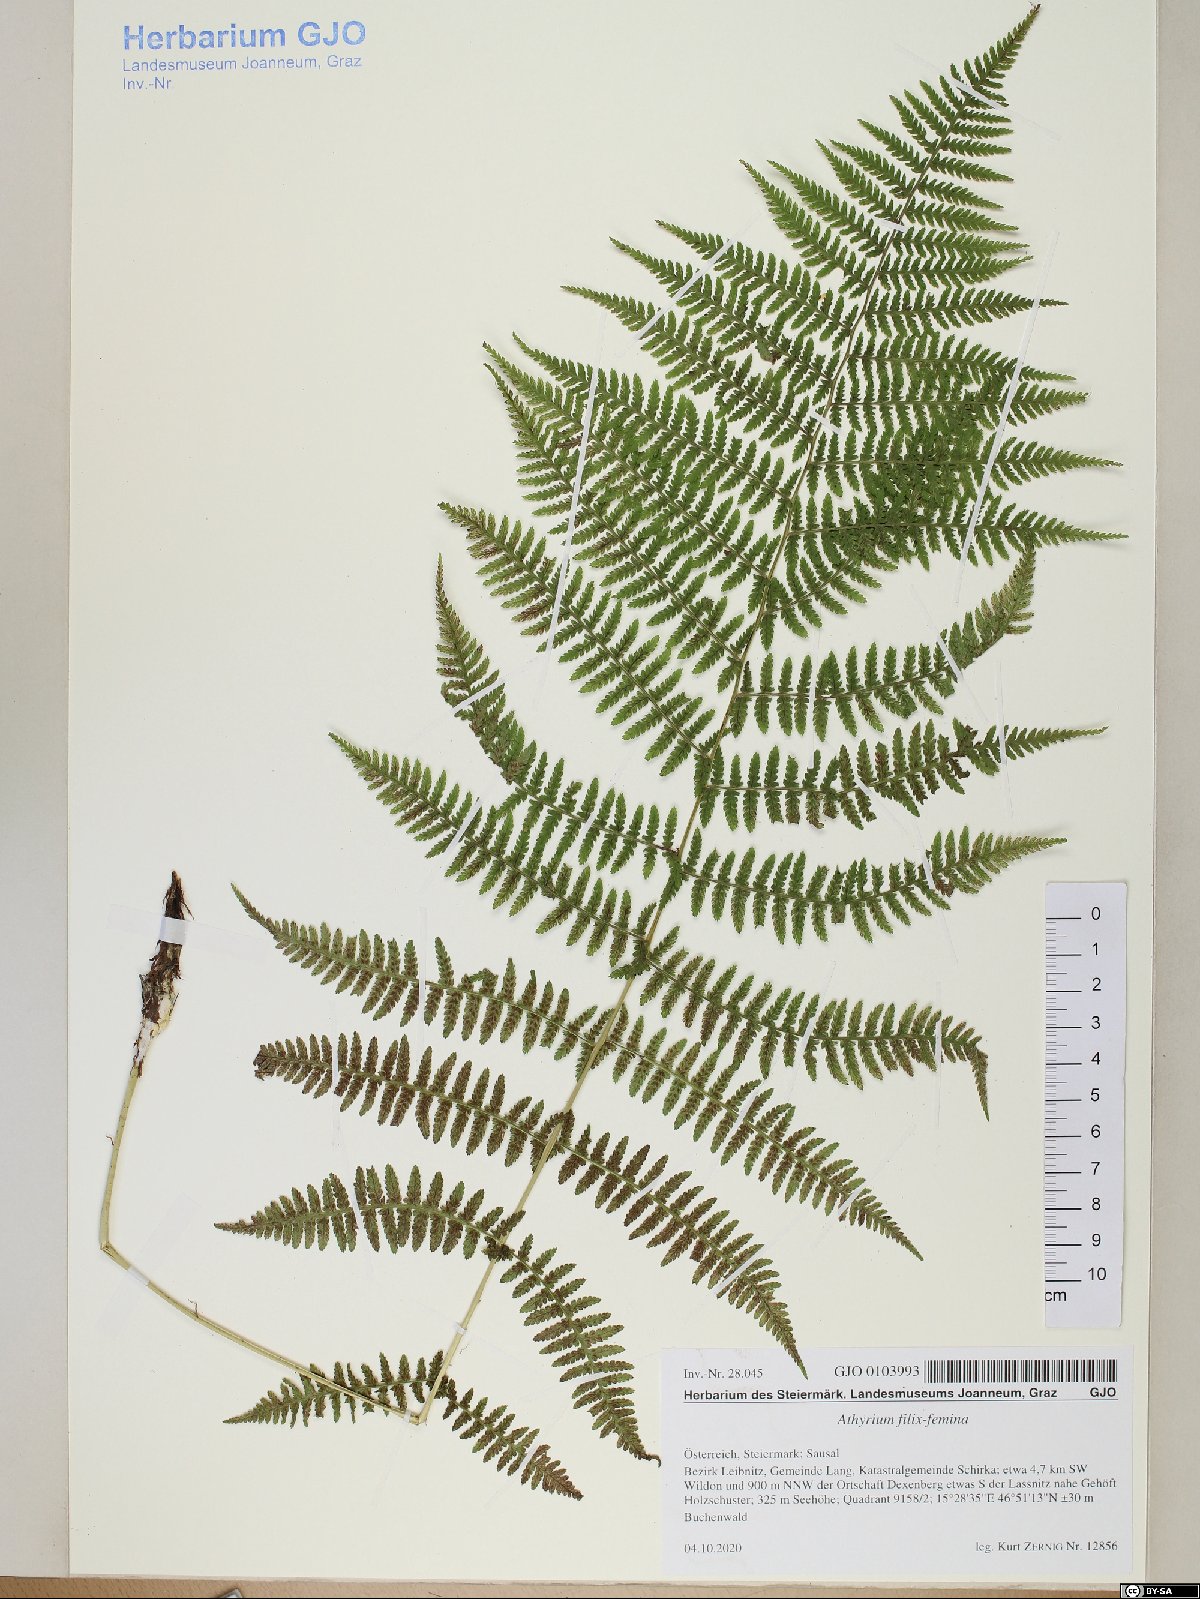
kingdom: Plantae
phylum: Tracheophyta
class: Polypodiopsida
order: Polypodiales
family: Athyriaceae
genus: Athyrium
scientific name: Athyrium filix-femina
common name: Lady fern
